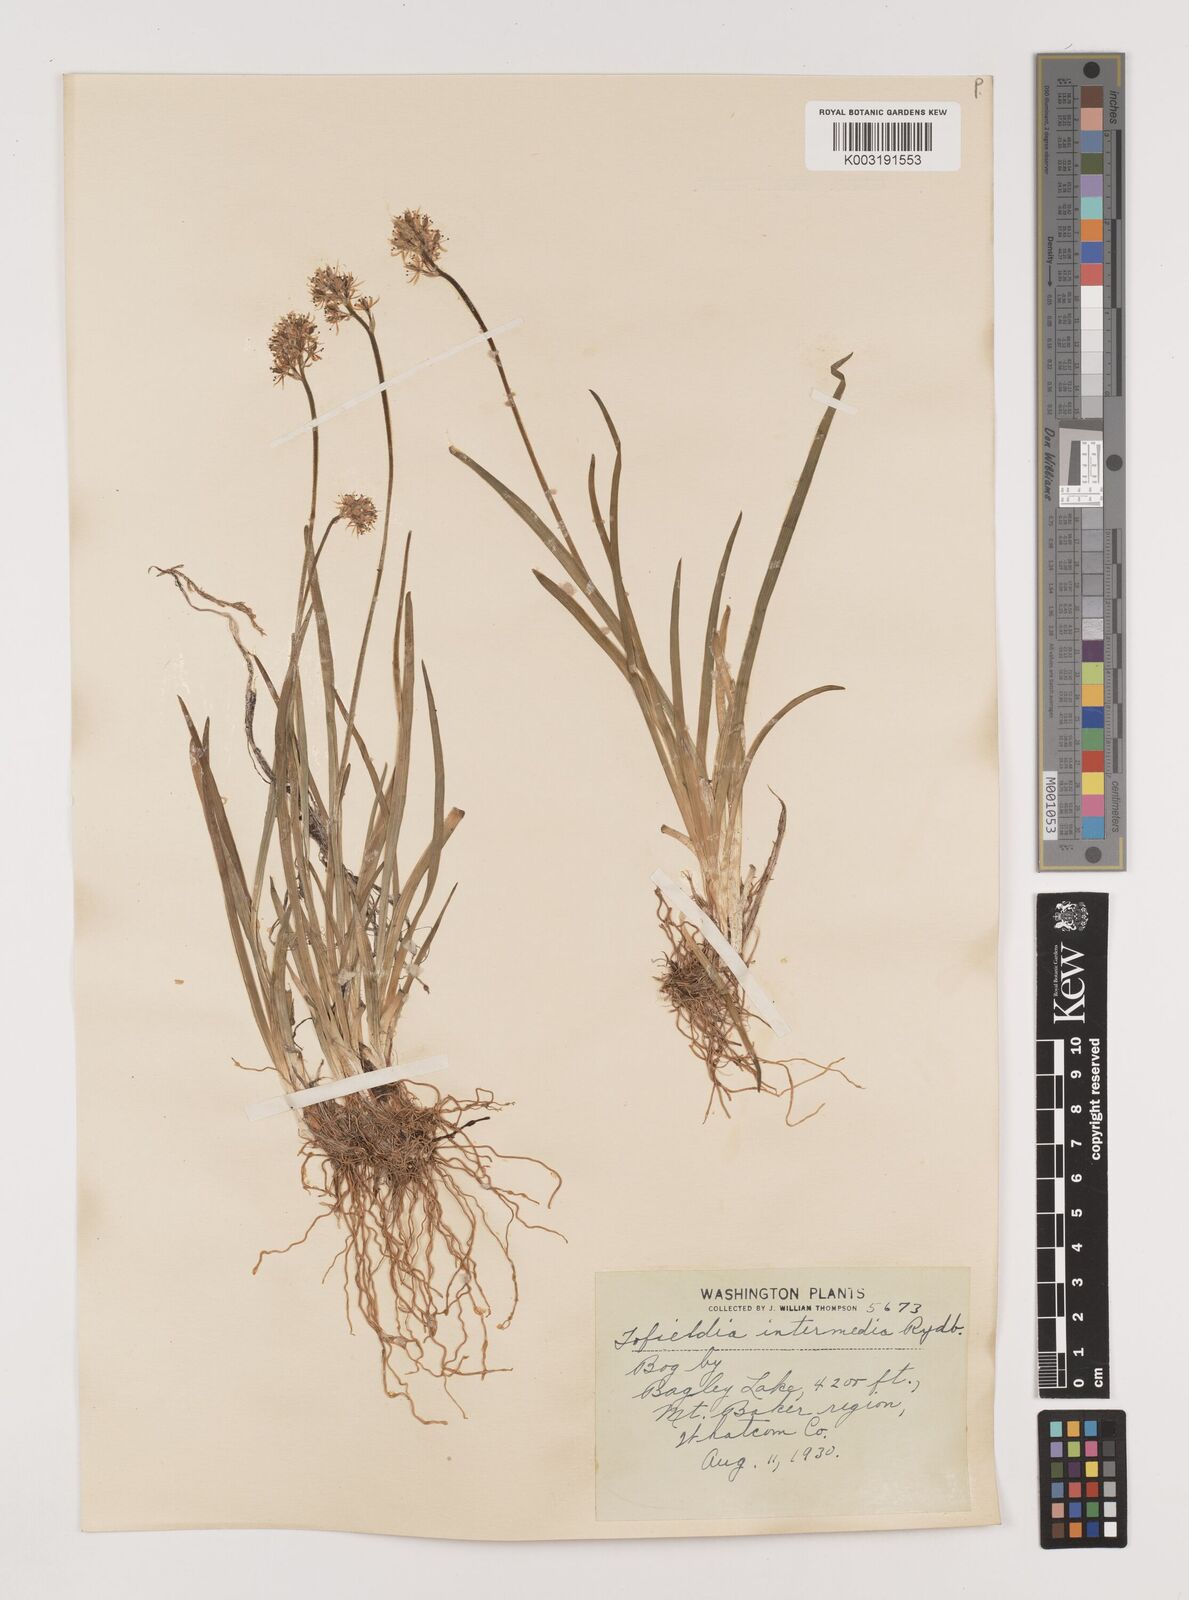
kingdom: Plantae
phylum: Tracheophyta
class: Liliopsida
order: Alismatales
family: Tofieldiaceae
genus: Triantha
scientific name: Triantha occidentalis
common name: Western false asphodel
